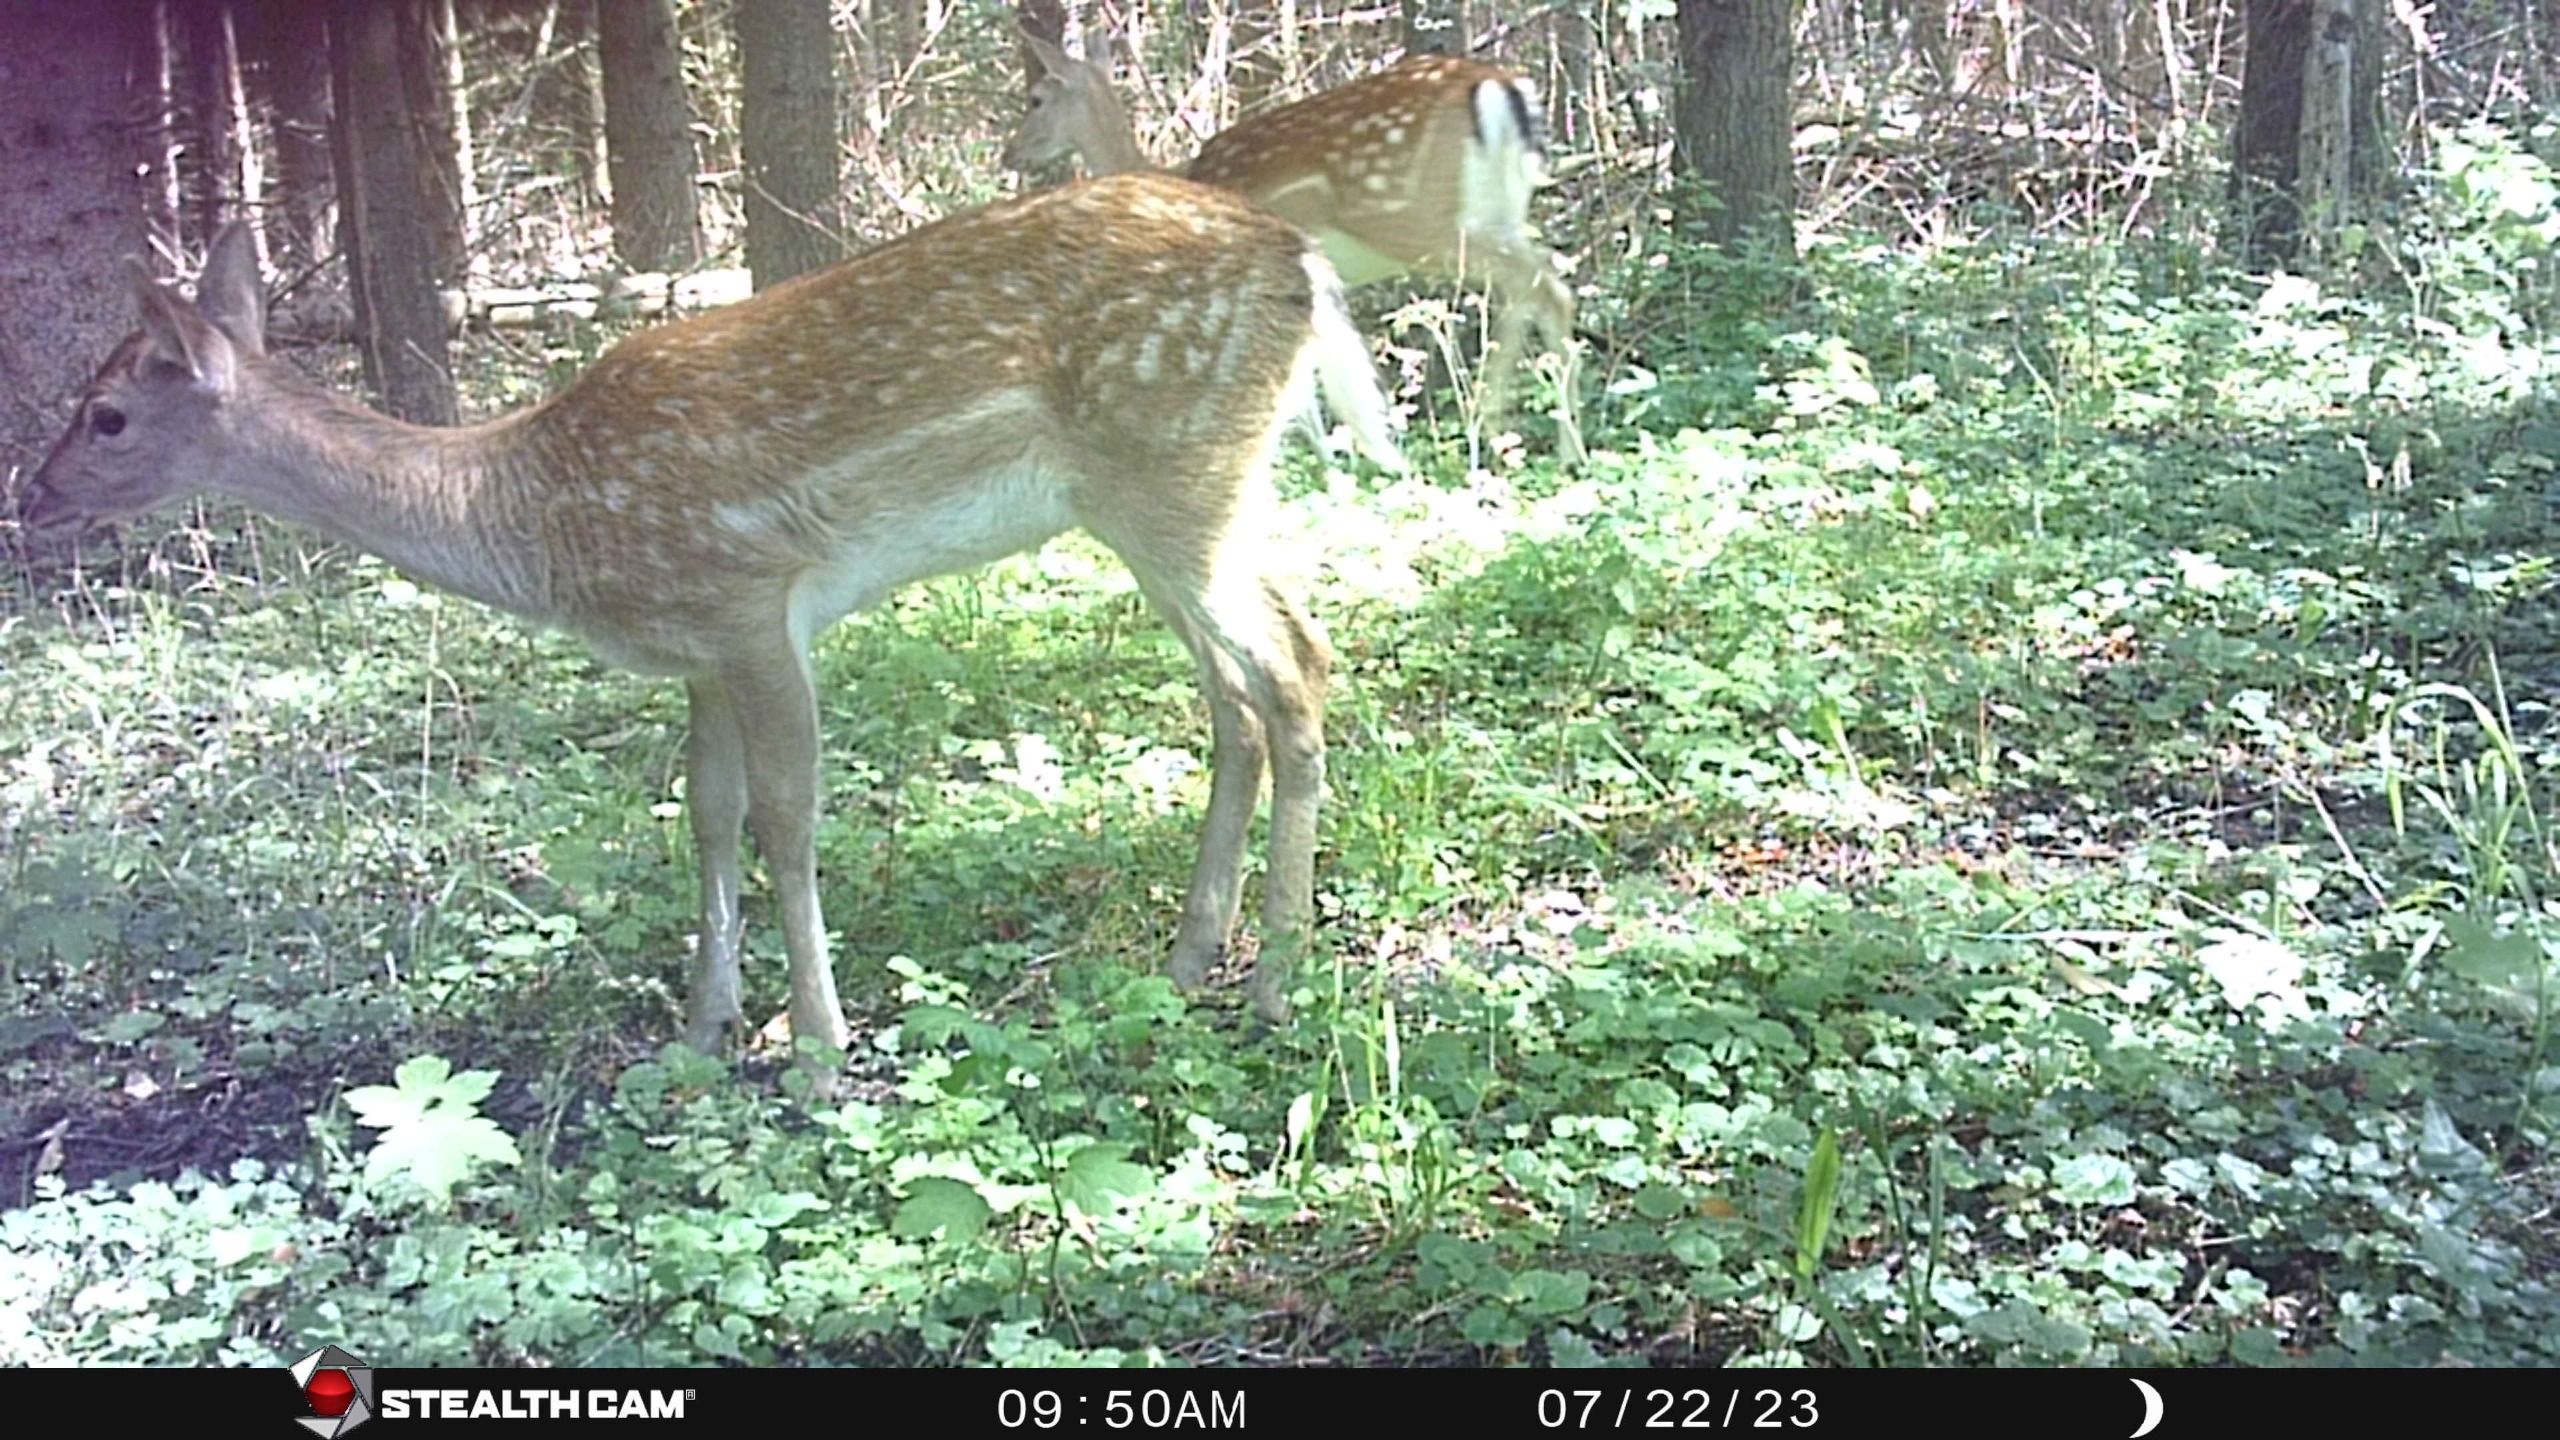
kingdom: Animalia
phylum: Chordata
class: Mammalia
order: Artiodactyla
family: Cervidae
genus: Dama
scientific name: Dama dama
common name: Dådyr
